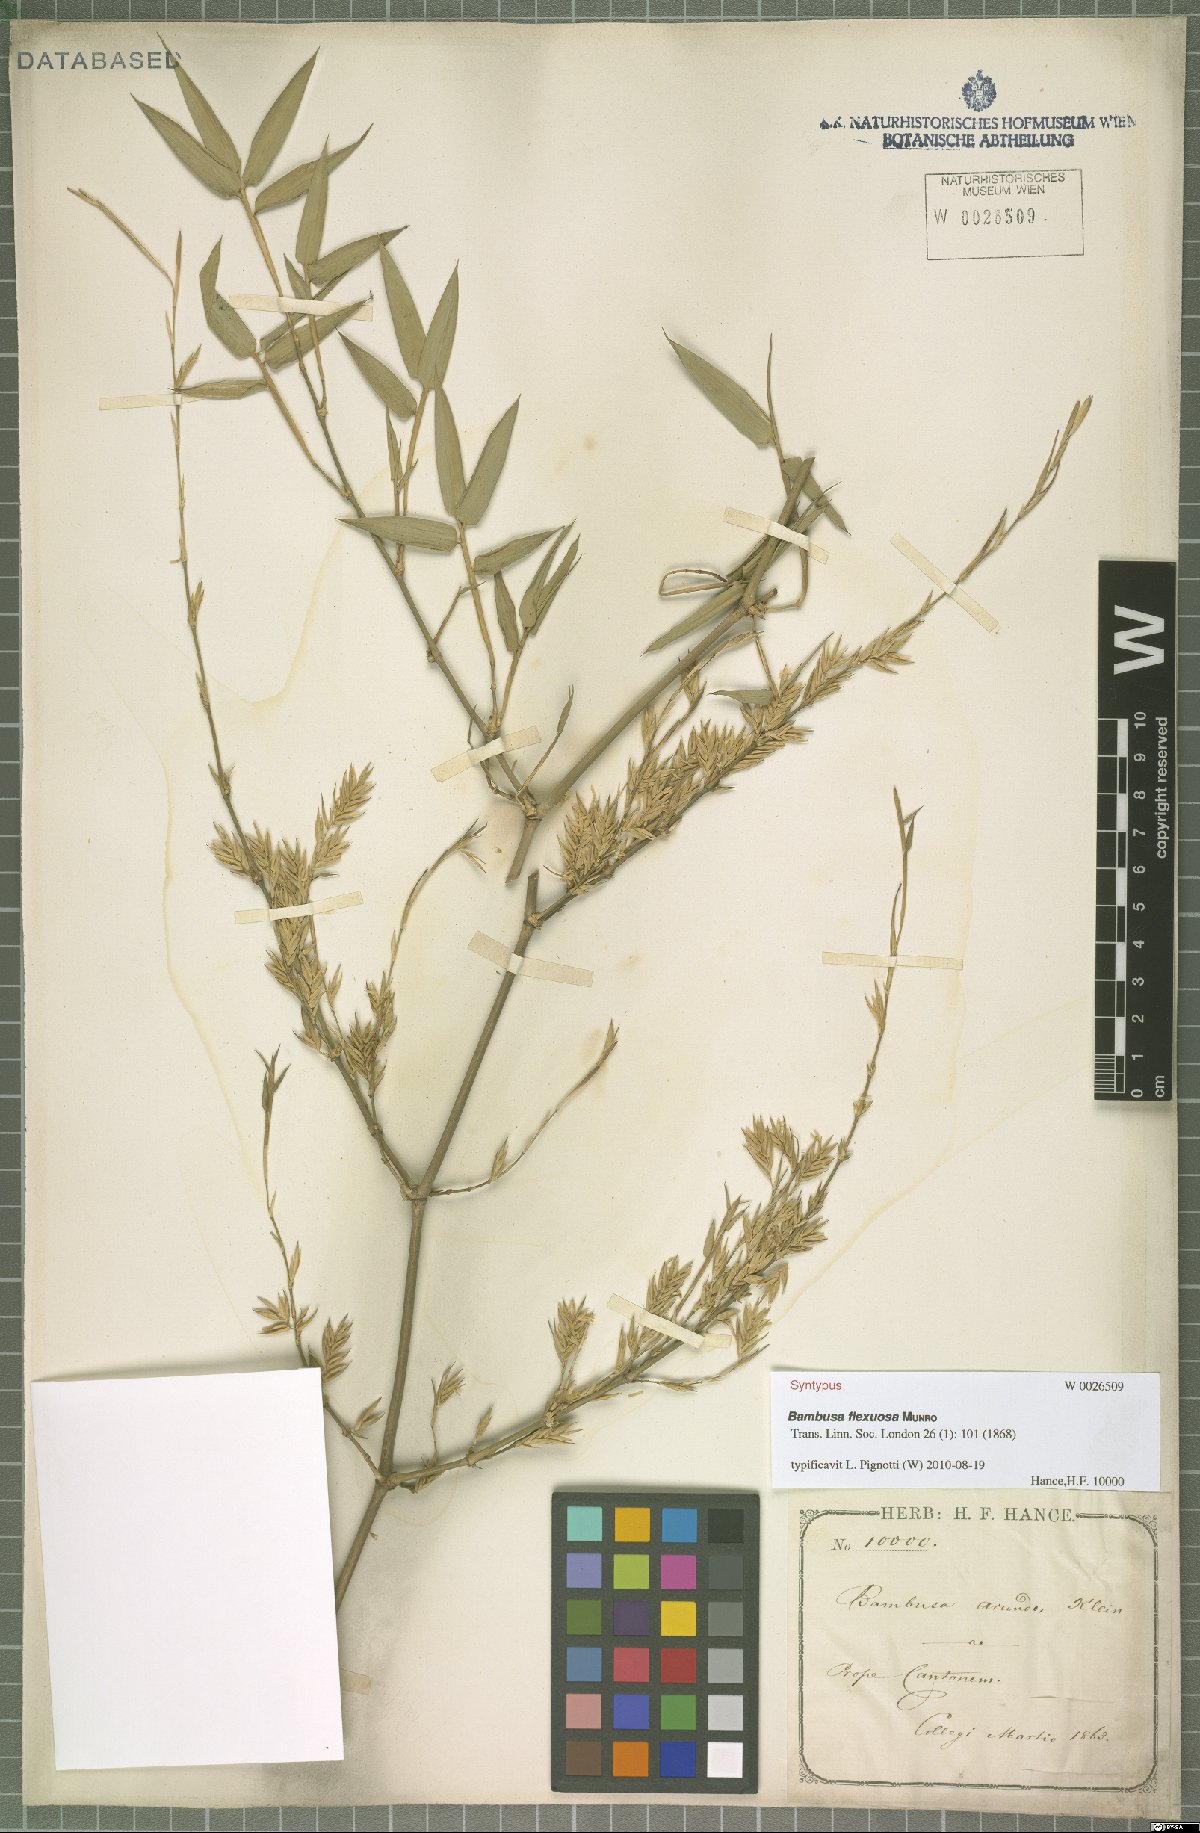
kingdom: Plantae
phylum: Tracheophyta
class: Liliopsida
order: Poales
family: Poaceae
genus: Bambusa
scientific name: Bambusa flexuosa
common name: Lesser thorny bamboo
